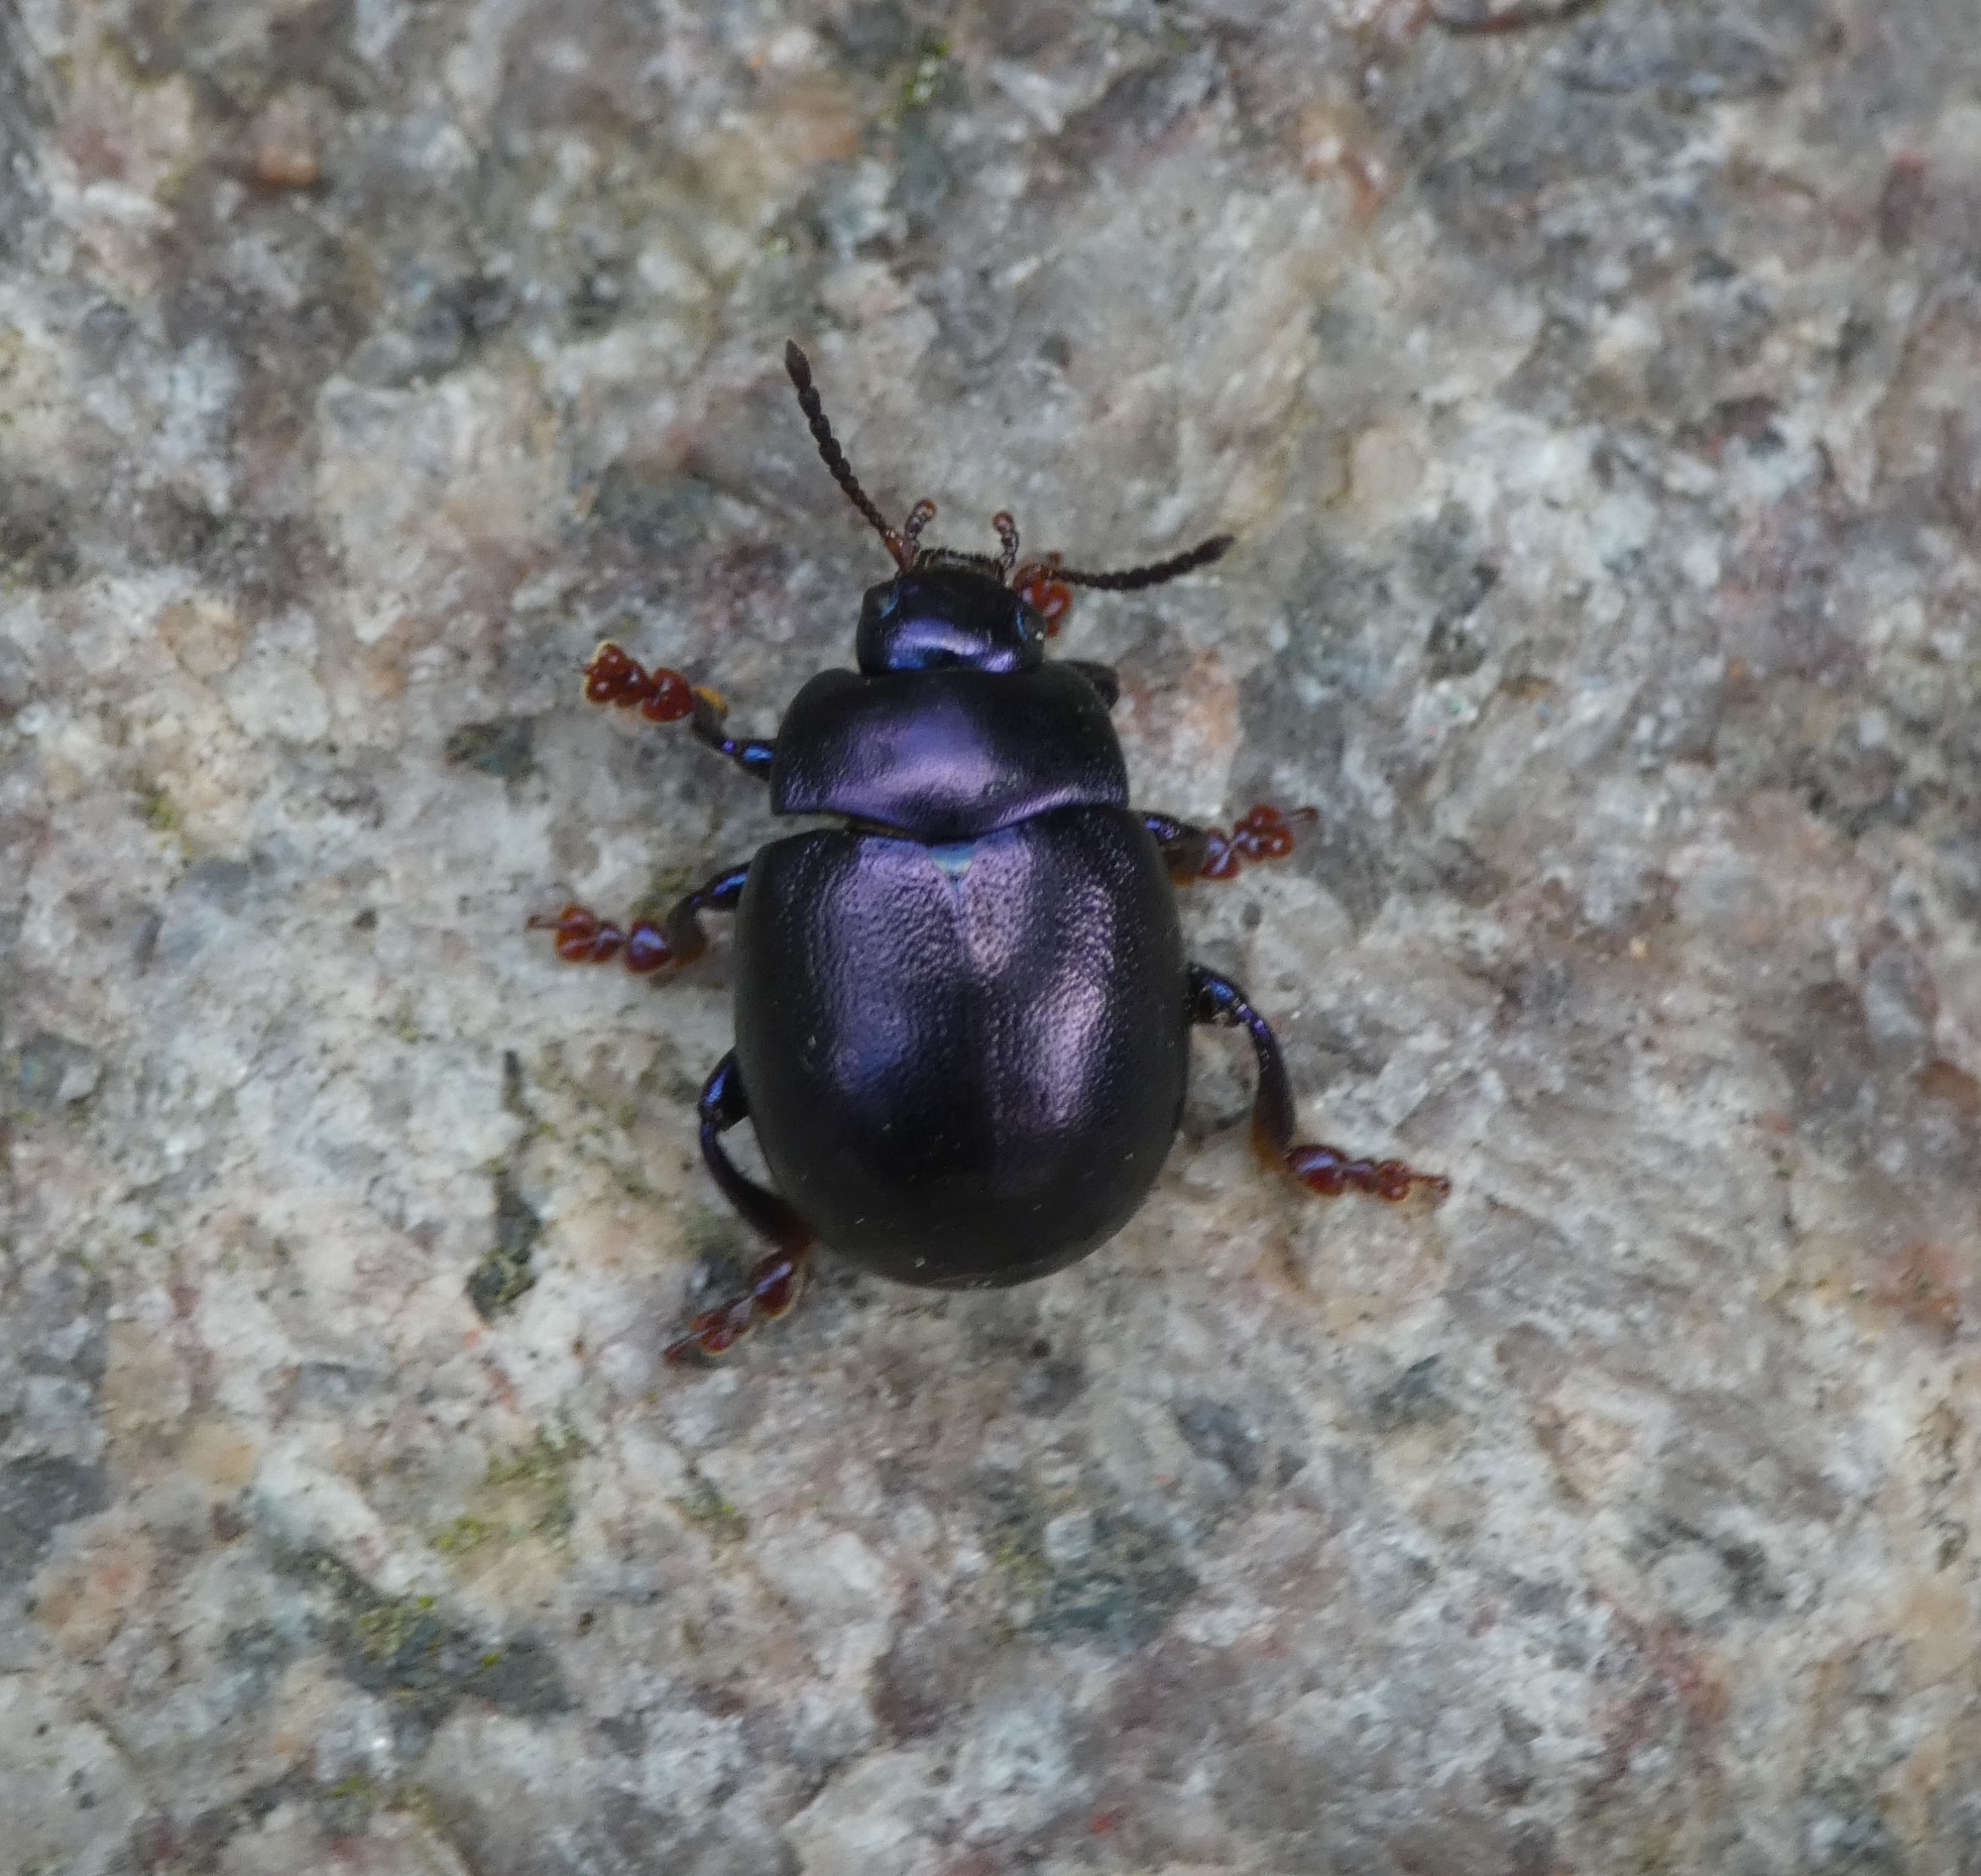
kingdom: Animalia
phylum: Arthropoda
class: Insecta
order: Coleoptera
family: Chrysomelidae
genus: Chrysolina
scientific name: Chrysolina sturmi
